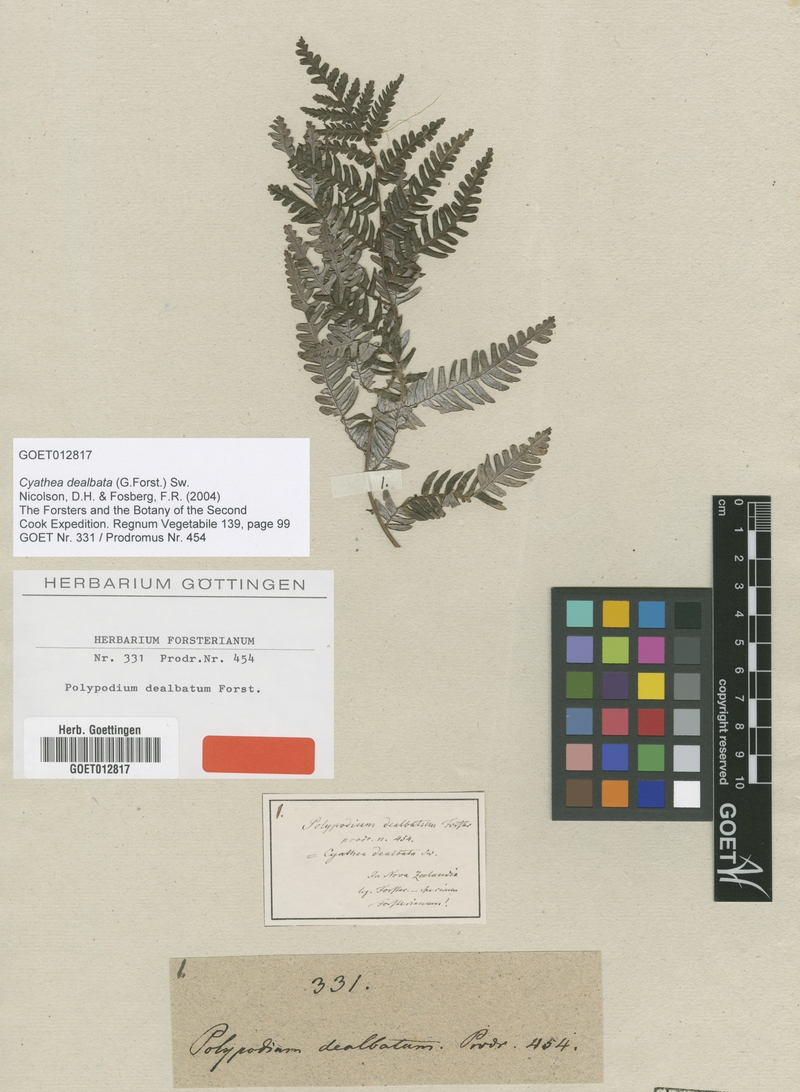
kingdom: Plantae
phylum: Tracheophyta
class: Polypodiopsida
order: Cyatheales
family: Cyatheaceae
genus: Alsophila
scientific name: Alsophila dealbata
